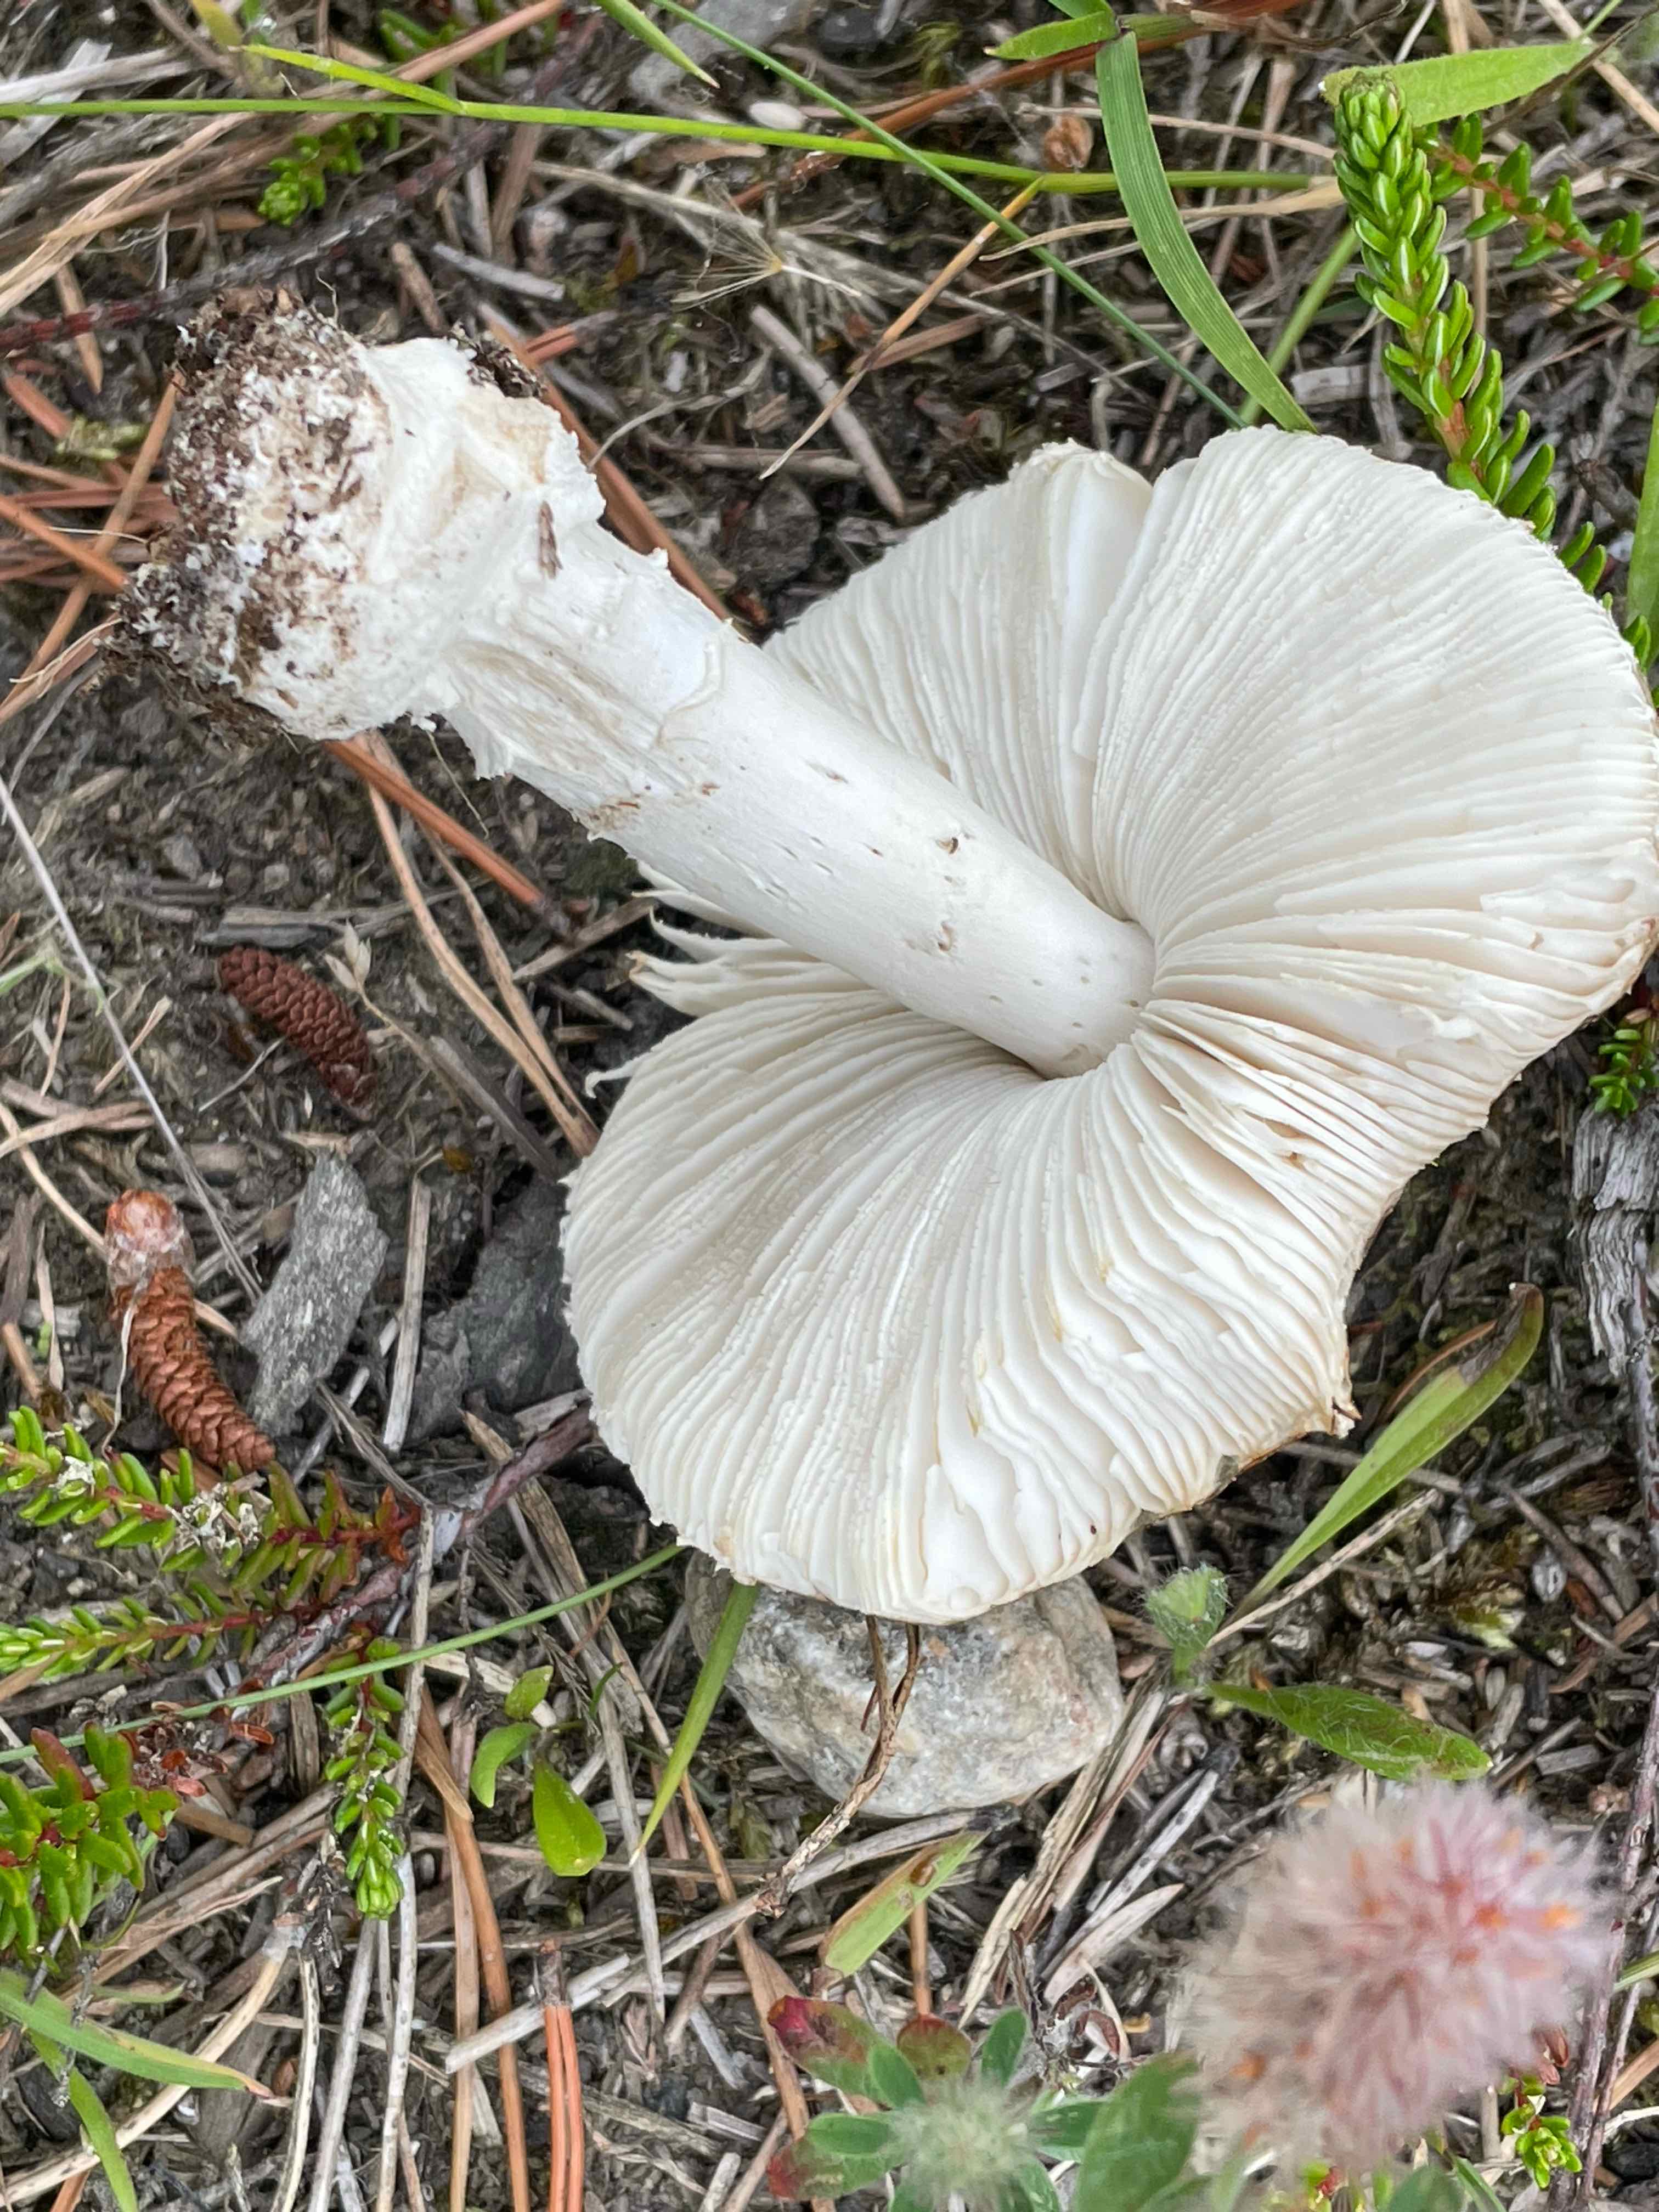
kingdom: Fungi
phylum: Basidiomycota
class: Agaricomycetes
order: Agaricales
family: Amanitaceae
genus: Amanita
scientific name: Amanita pantherina
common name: panter-fluesvamp
